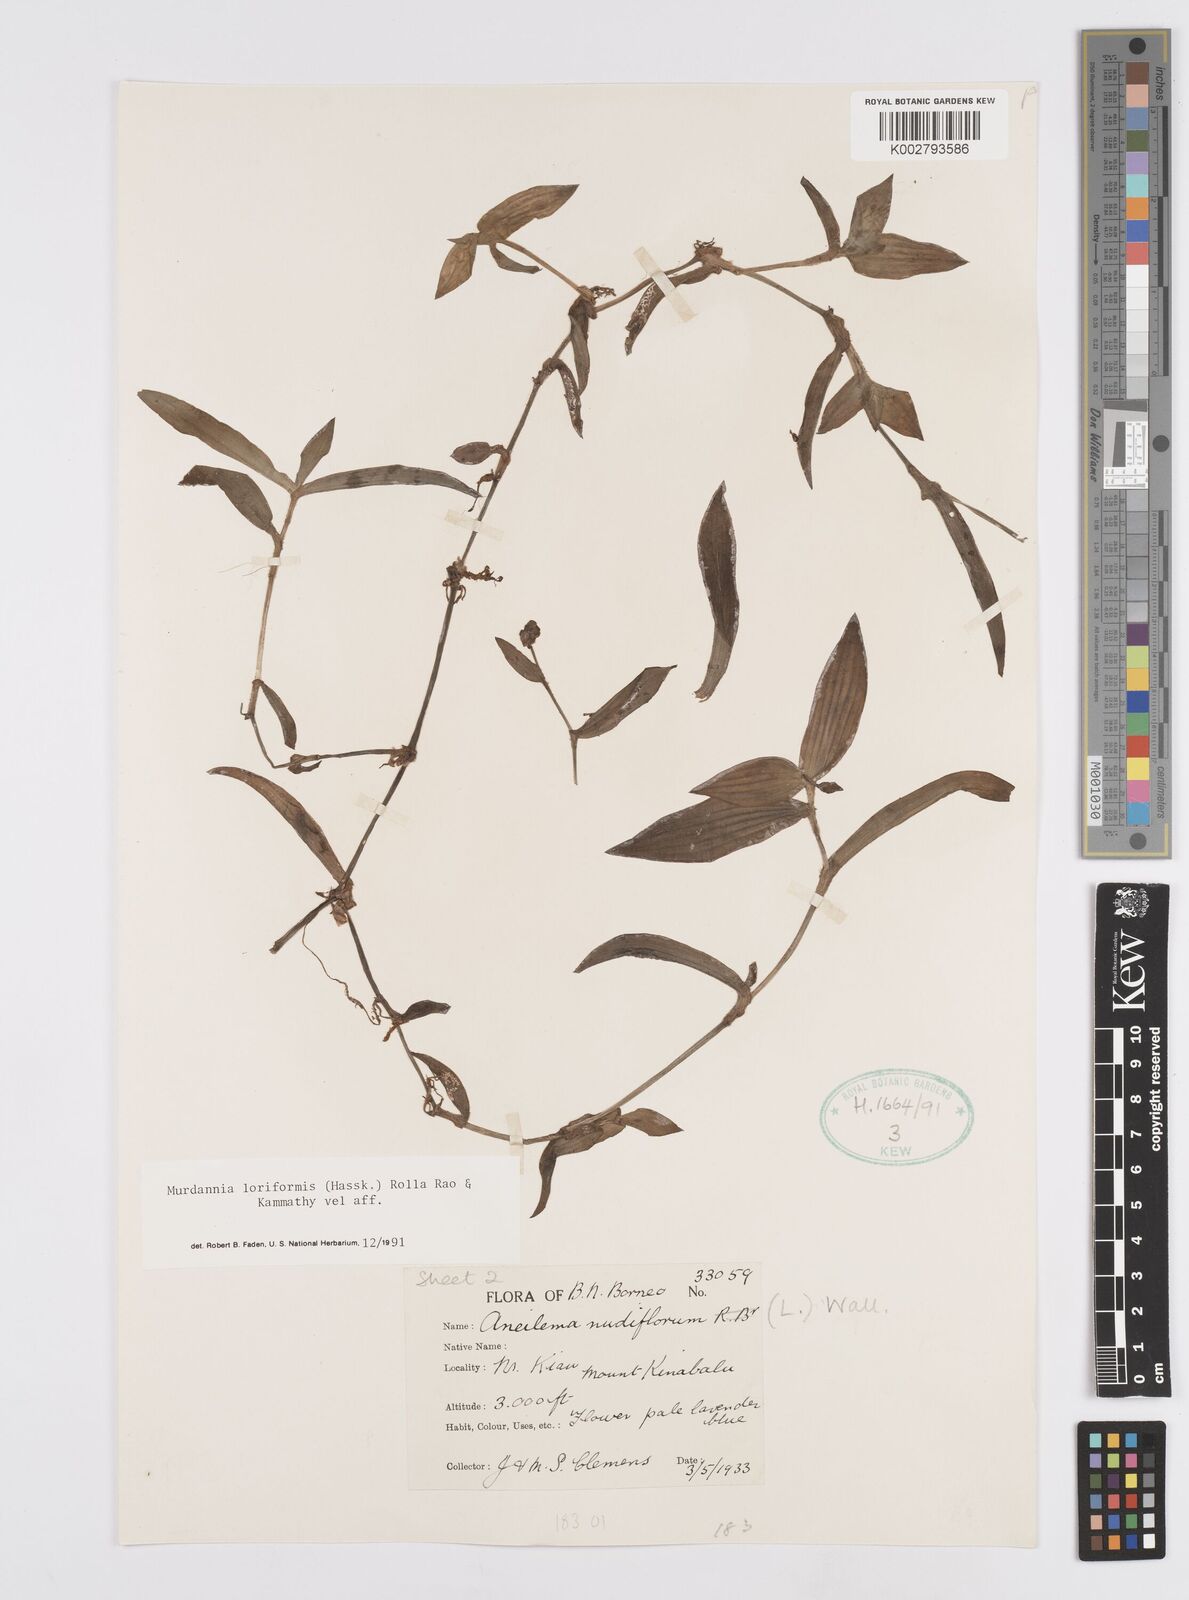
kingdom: Plantae
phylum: Tracheophyta
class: Liliopsida
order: Commelinales
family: Commelinaceae
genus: Murdannia
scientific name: Murdannia loriformis
